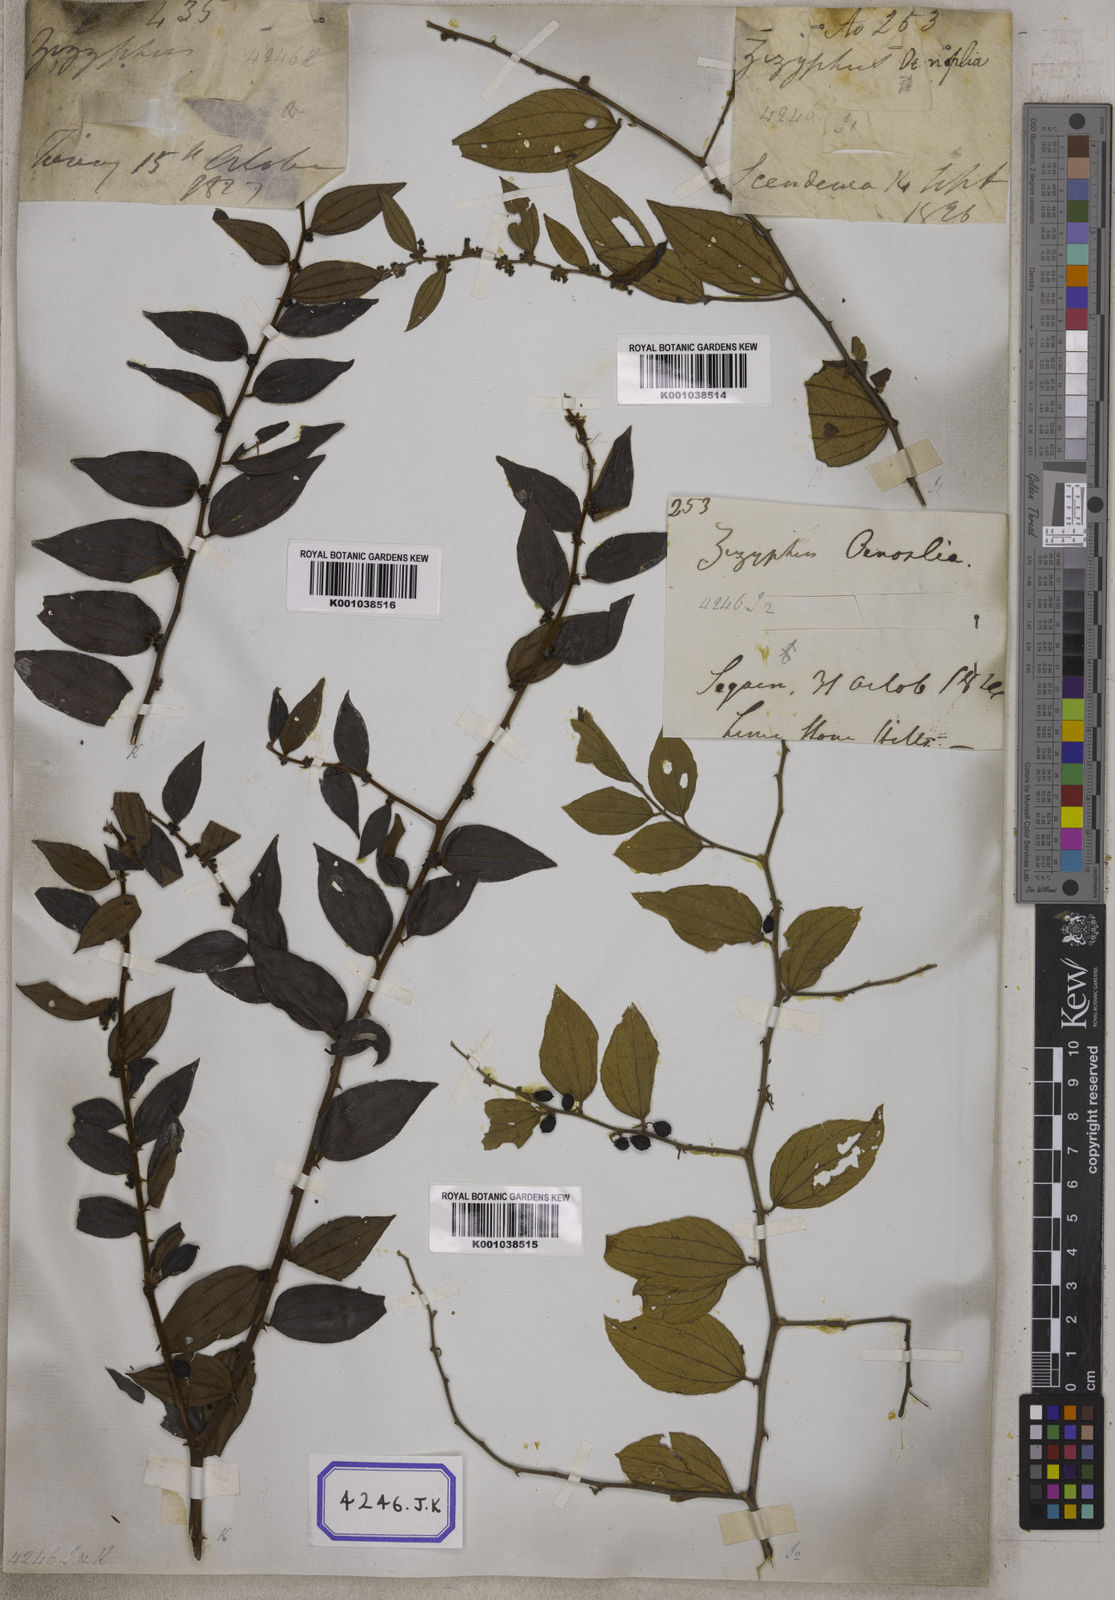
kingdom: Plantae
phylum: Tracheophyta
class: Magnoliopsida
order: Rosales
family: Rhamnaceae
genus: Ziziphus
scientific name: Ziziphus
